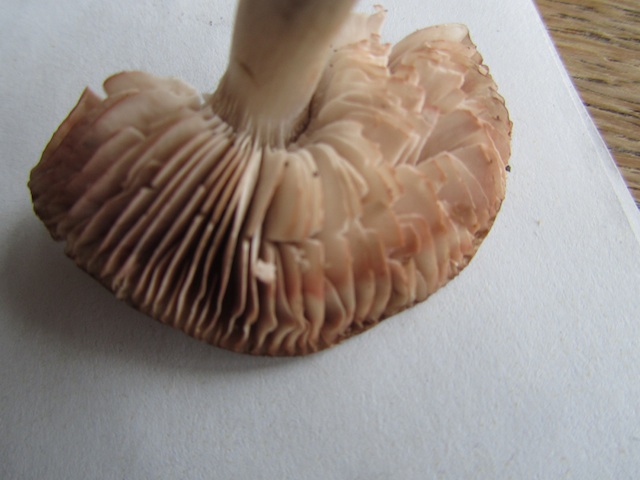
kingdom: Fungi
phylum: Basidiomycota
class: Agaricomycetes
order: Agaricales
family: Tricholomataceae
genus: Tricholoma
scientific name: Tricholoma orirubens
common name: rødbladet ridderhat
